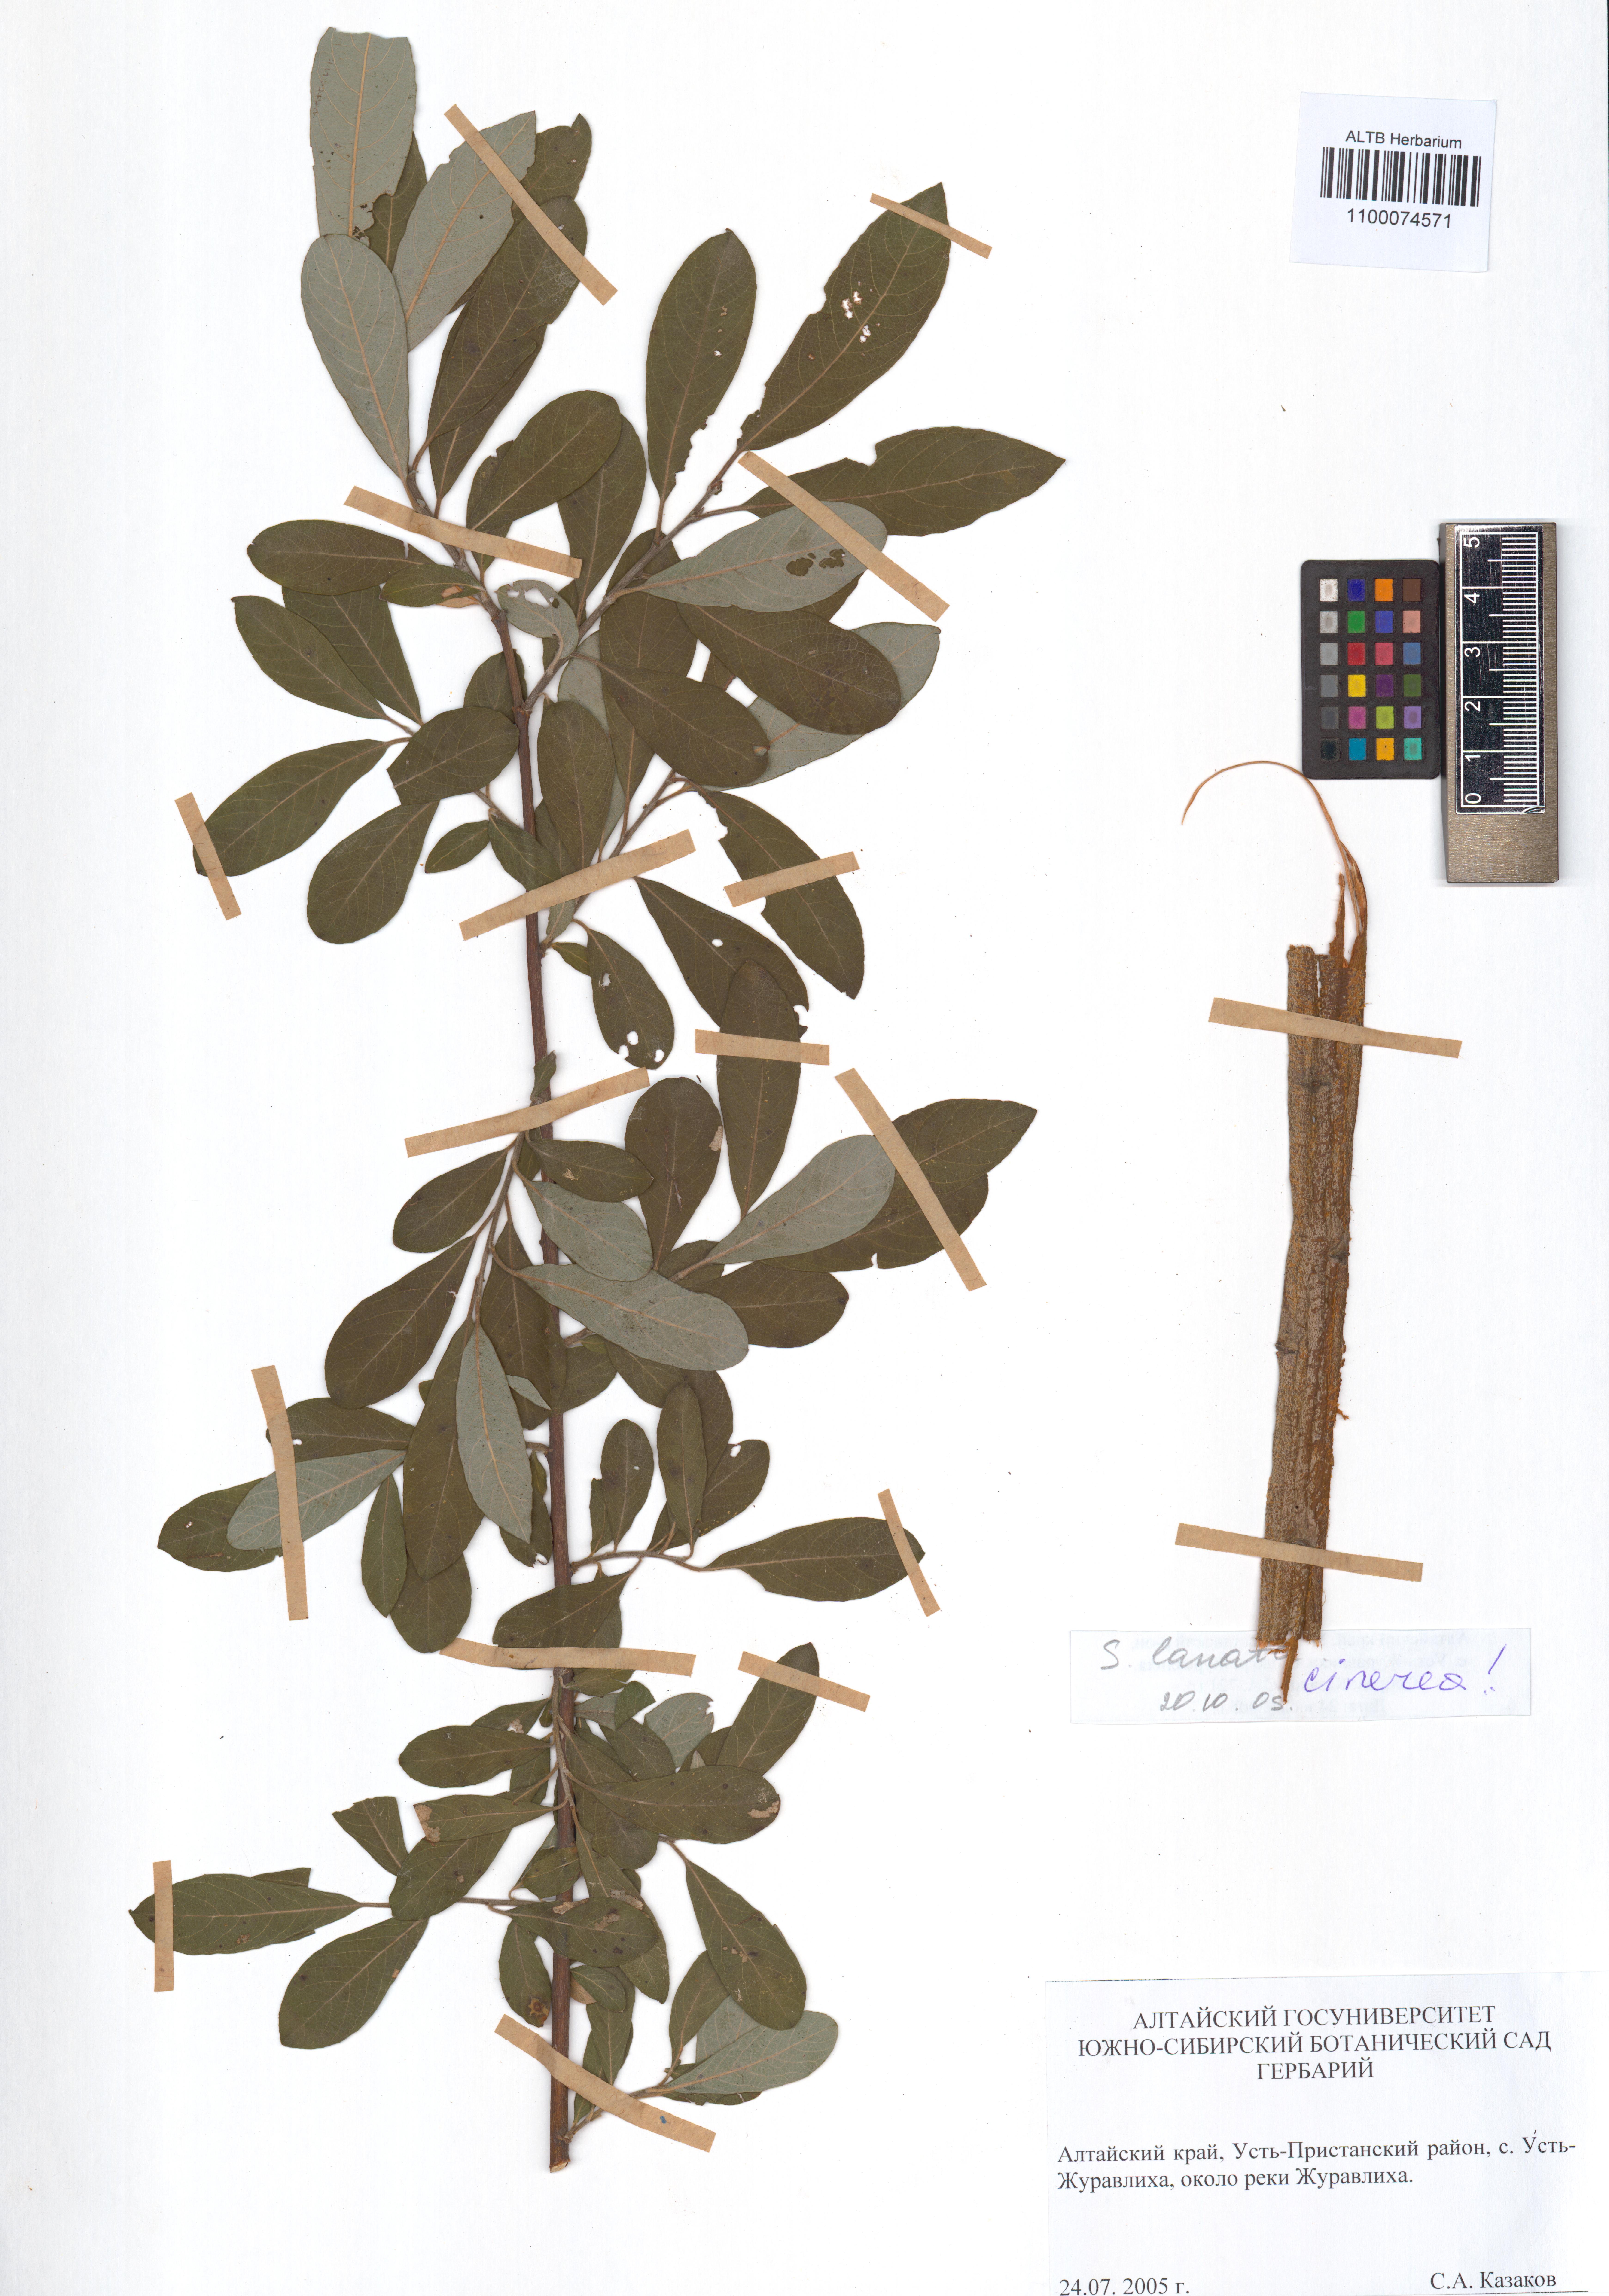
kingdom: Plantae
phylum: Tracheophyta
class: Magnoliopsida
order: Malpighiales
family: Salicaceae
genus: Salix
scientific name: Salix cinerea
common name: Common sallow
